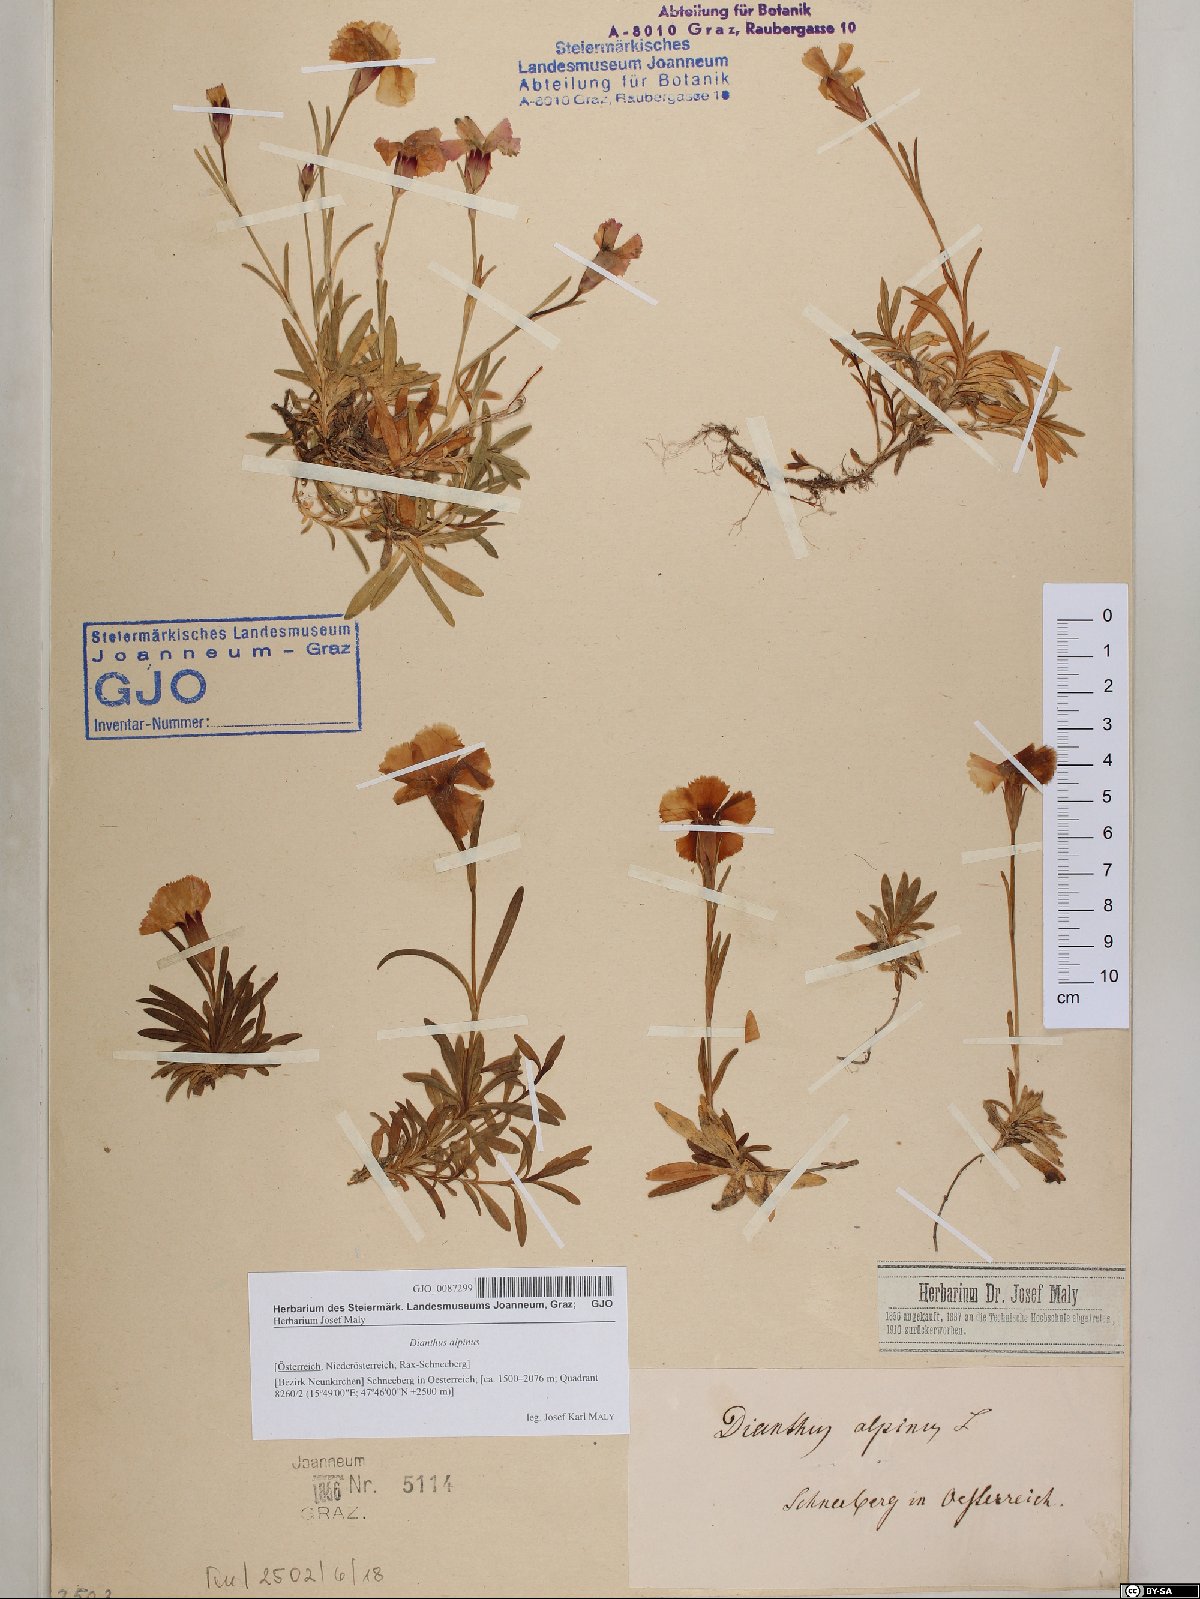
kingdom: Plantae
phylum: Tracheophyta
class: Magnoliopsida
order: Caryophyllales
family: Caryophyllaceae
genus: Dianthus
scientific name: Dianthus alpinus
